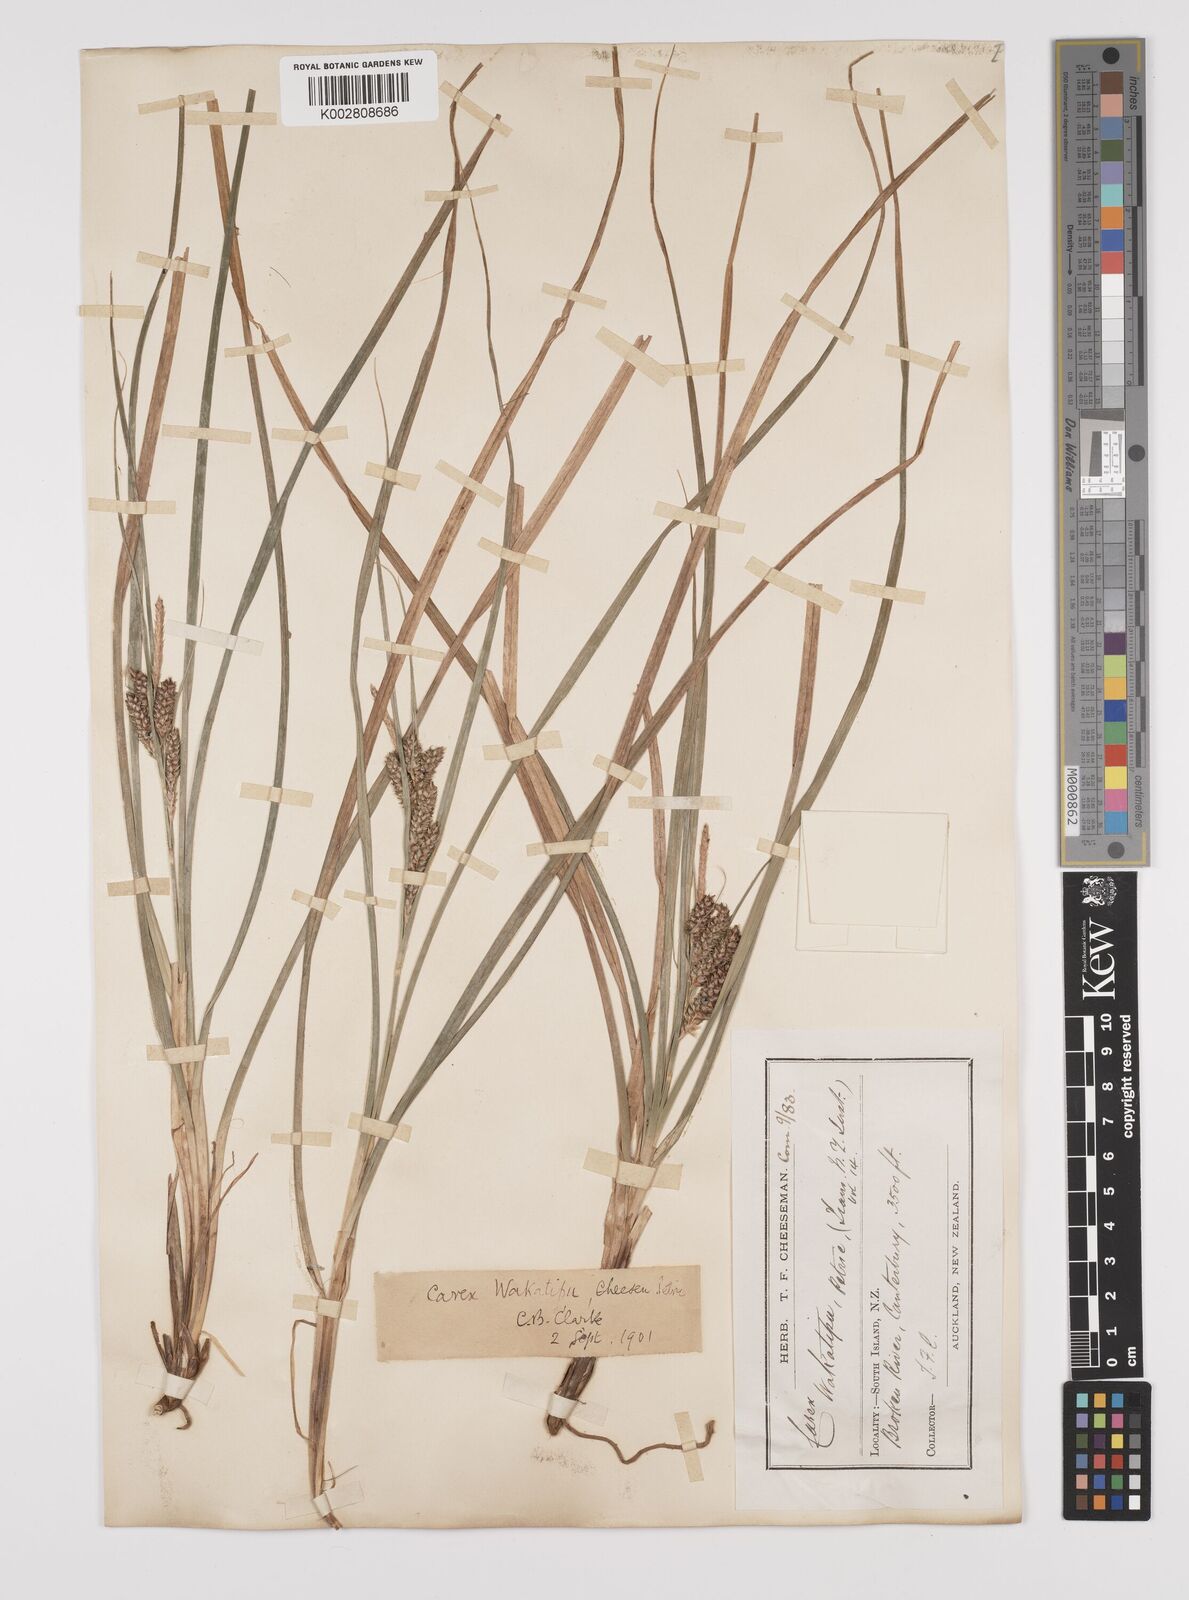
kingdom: Plantae
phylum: Tracheophyta
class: Liliopsida
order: Poales
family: Cyperaceae
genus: Carex
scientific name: Carex wakatipu
